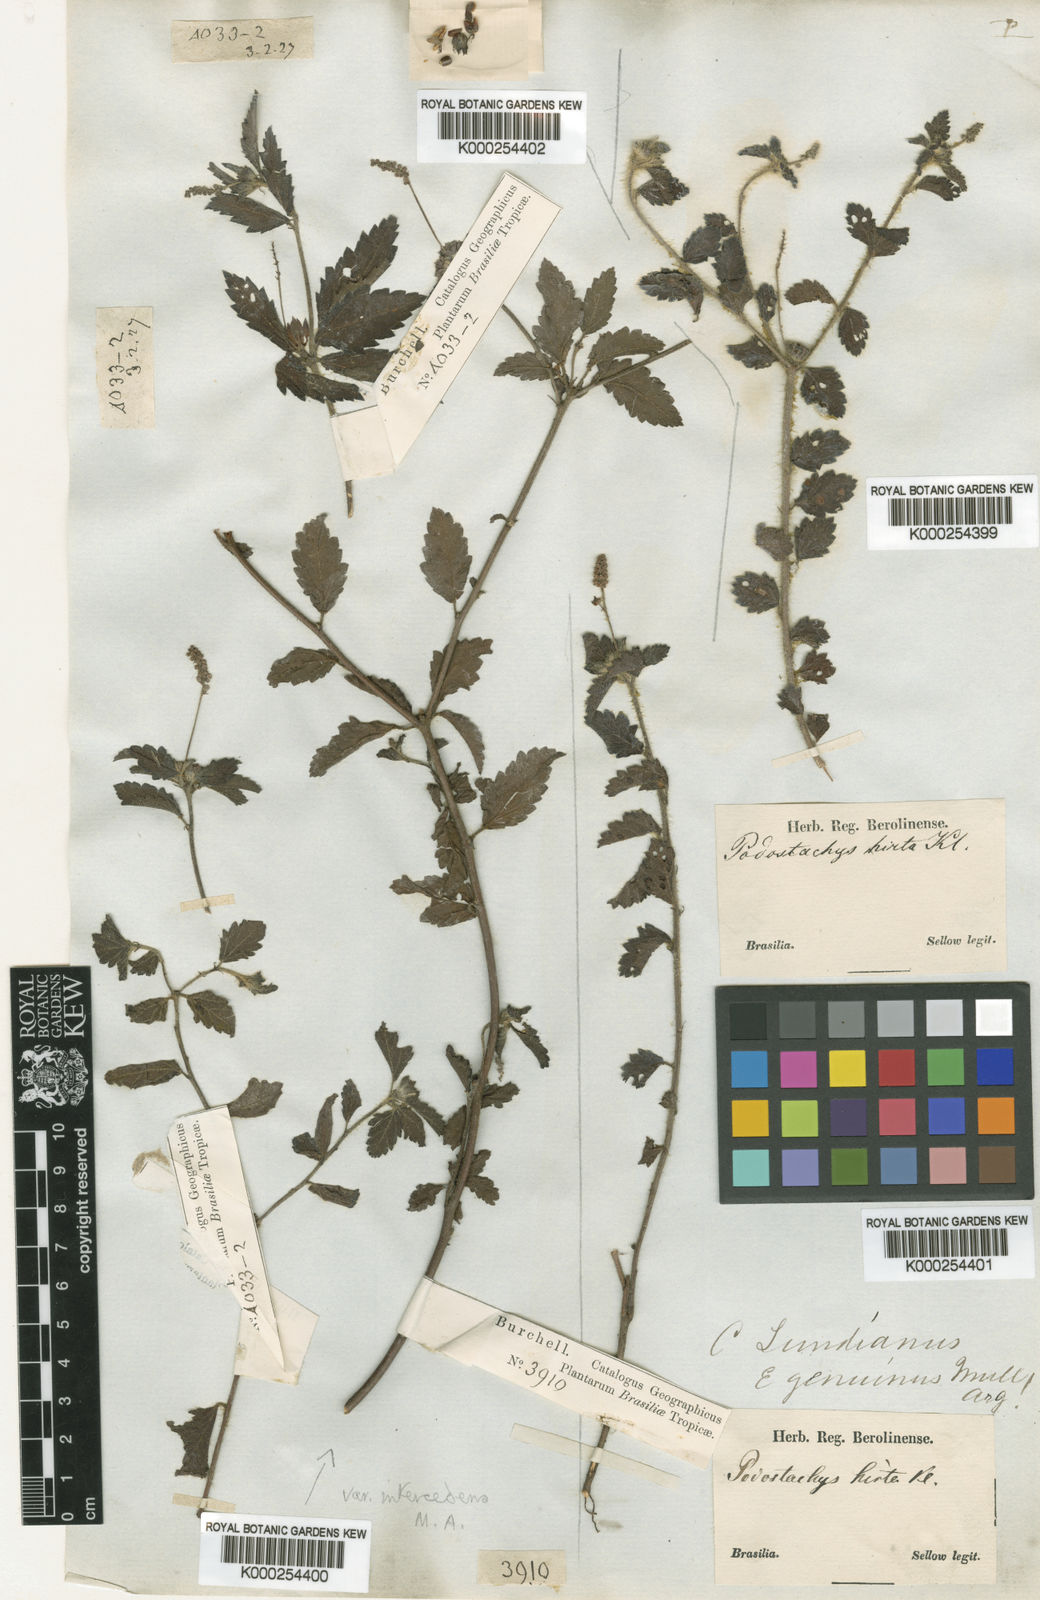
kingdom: Plantae
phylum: Tracheophyta
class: Magnoliopsida
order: Malpighiales
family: Euphorbiaceae
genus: Croton
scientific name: Croton
